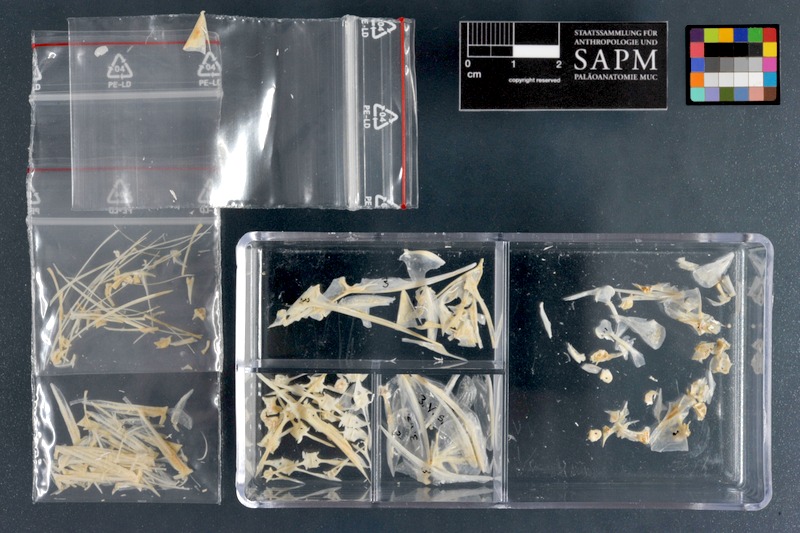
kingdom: Animalia
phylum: Chordata
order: Perciformes
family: Carangidae
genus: Selene
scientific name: Selene setapinnis
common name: Moonfish
